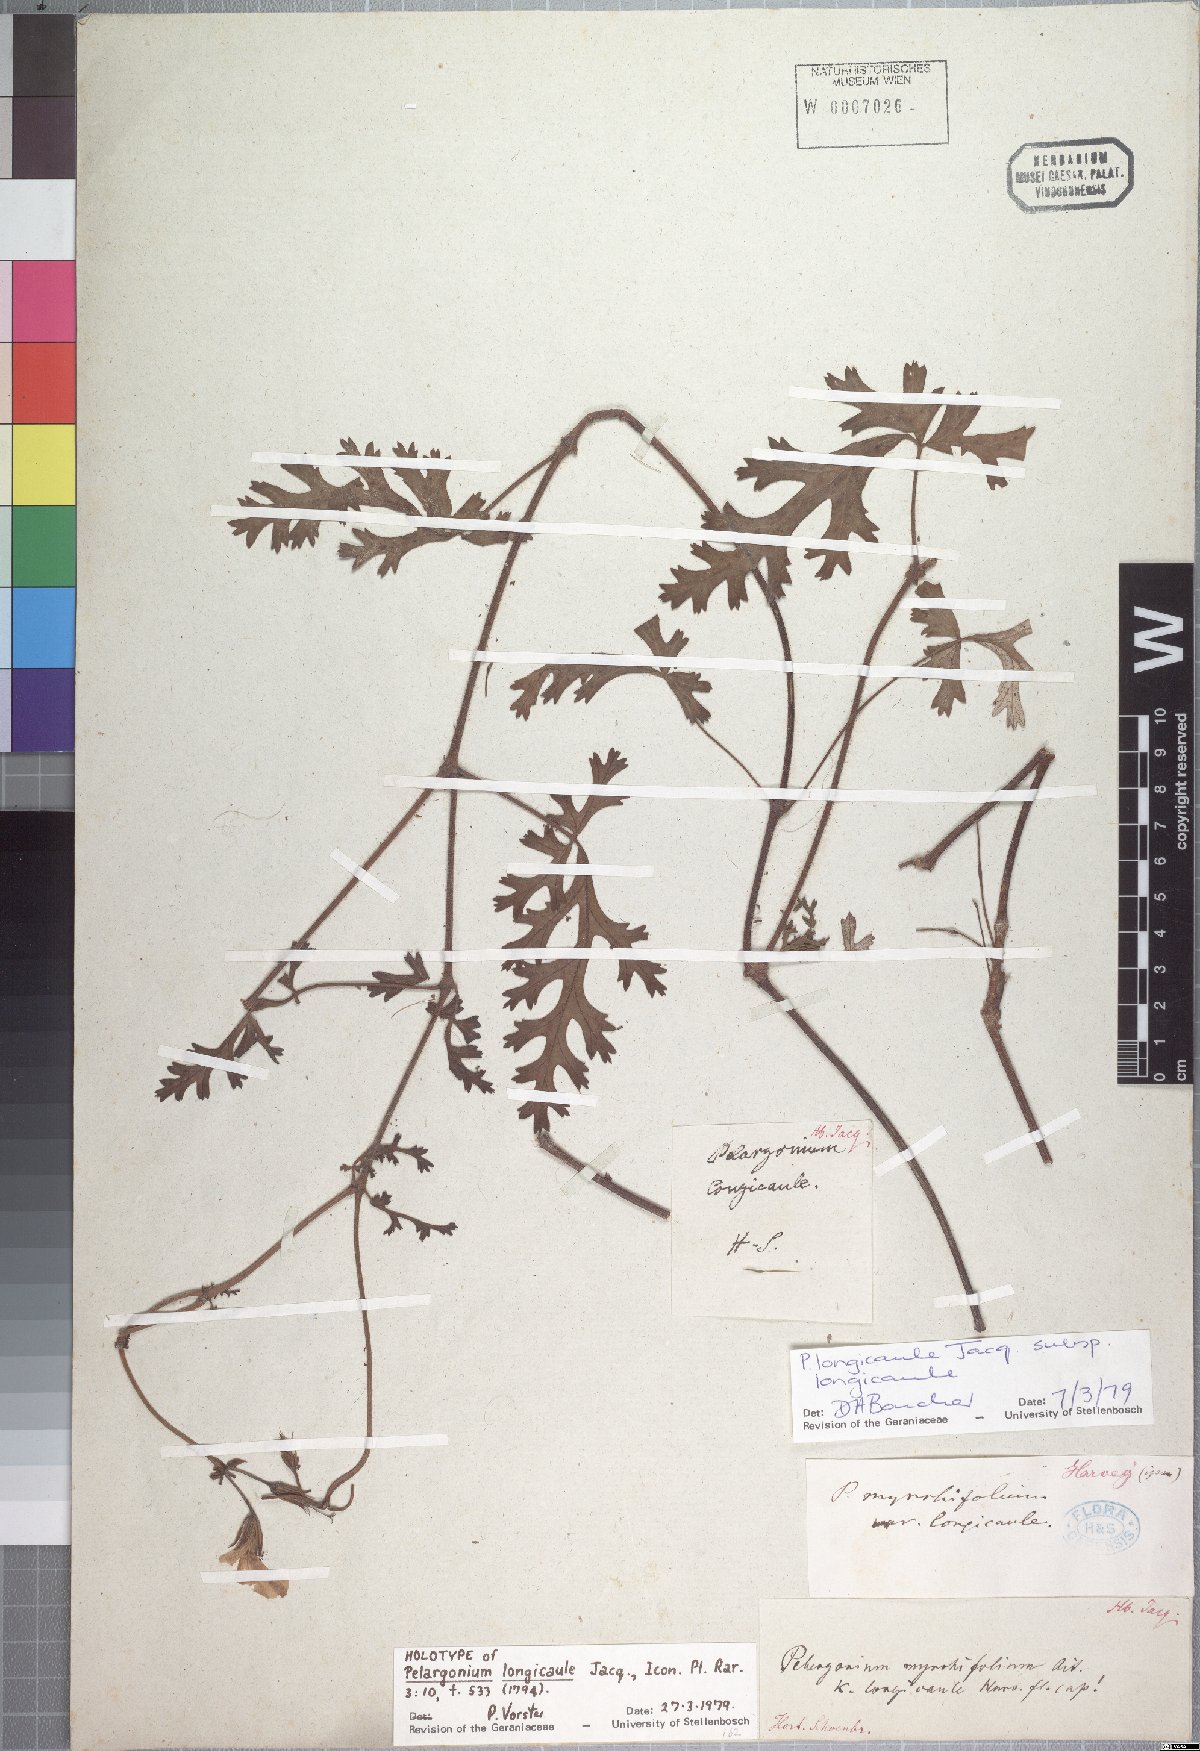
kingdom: Plantae
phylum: Tracheophyta
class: Magnoliopsida
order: Geraniales
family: Geraniaceae
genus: Pelargonium
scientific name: Pelargonium longicaule
